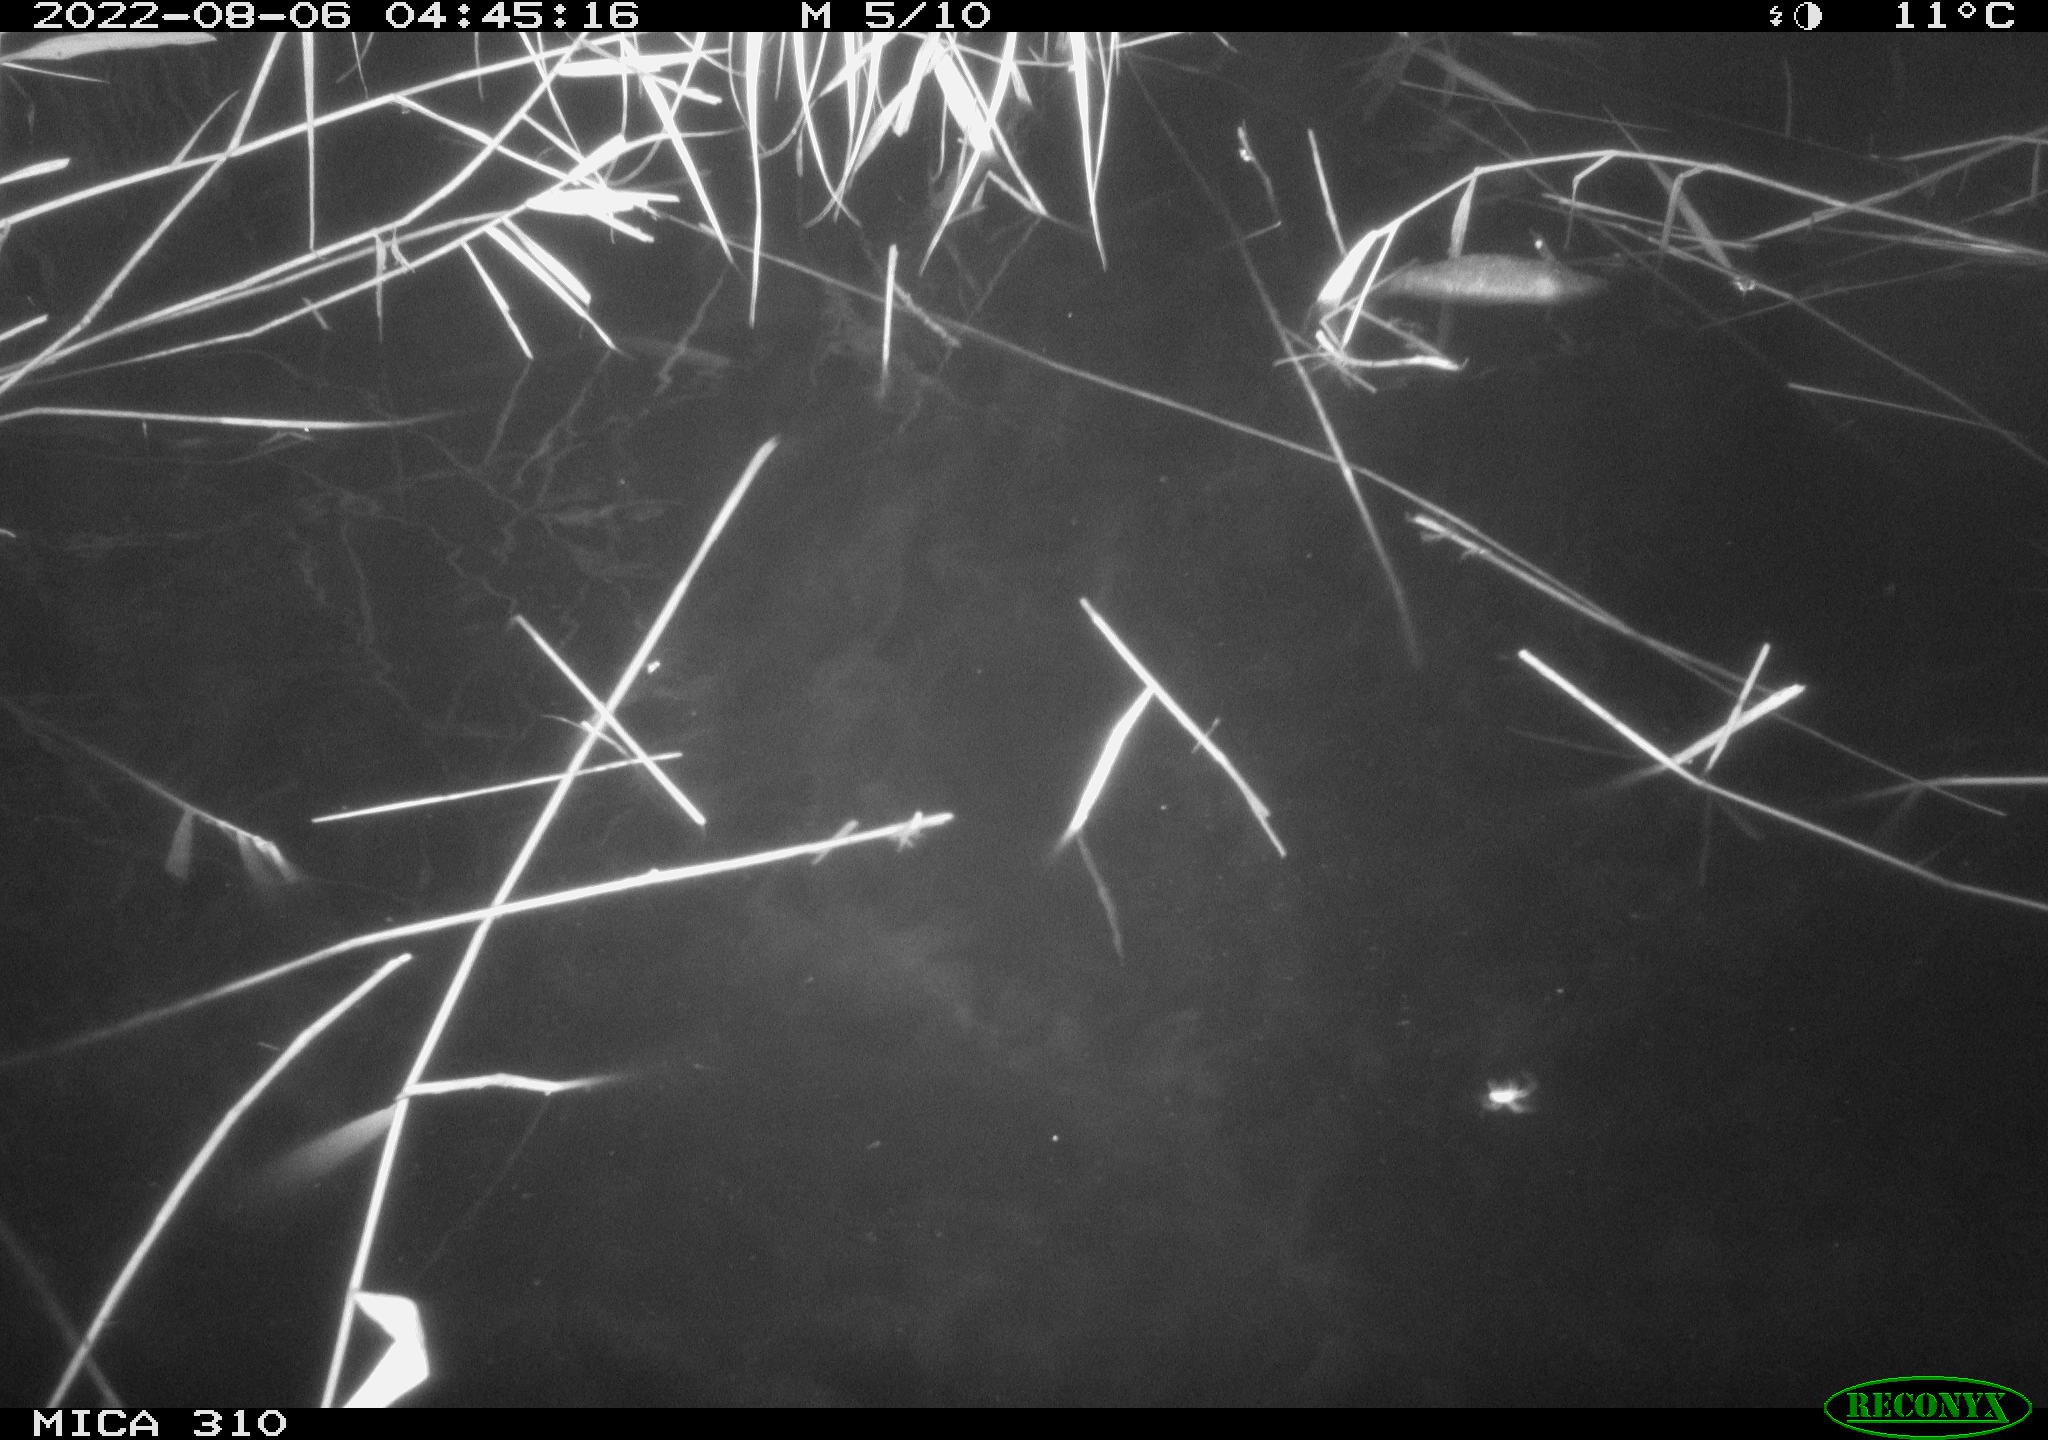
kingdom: Animalia
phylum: Chordata
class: Aves
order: Anseriformes
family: Anatidae
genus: Anas
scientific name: Anas platyrhynchos
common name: Mallard
